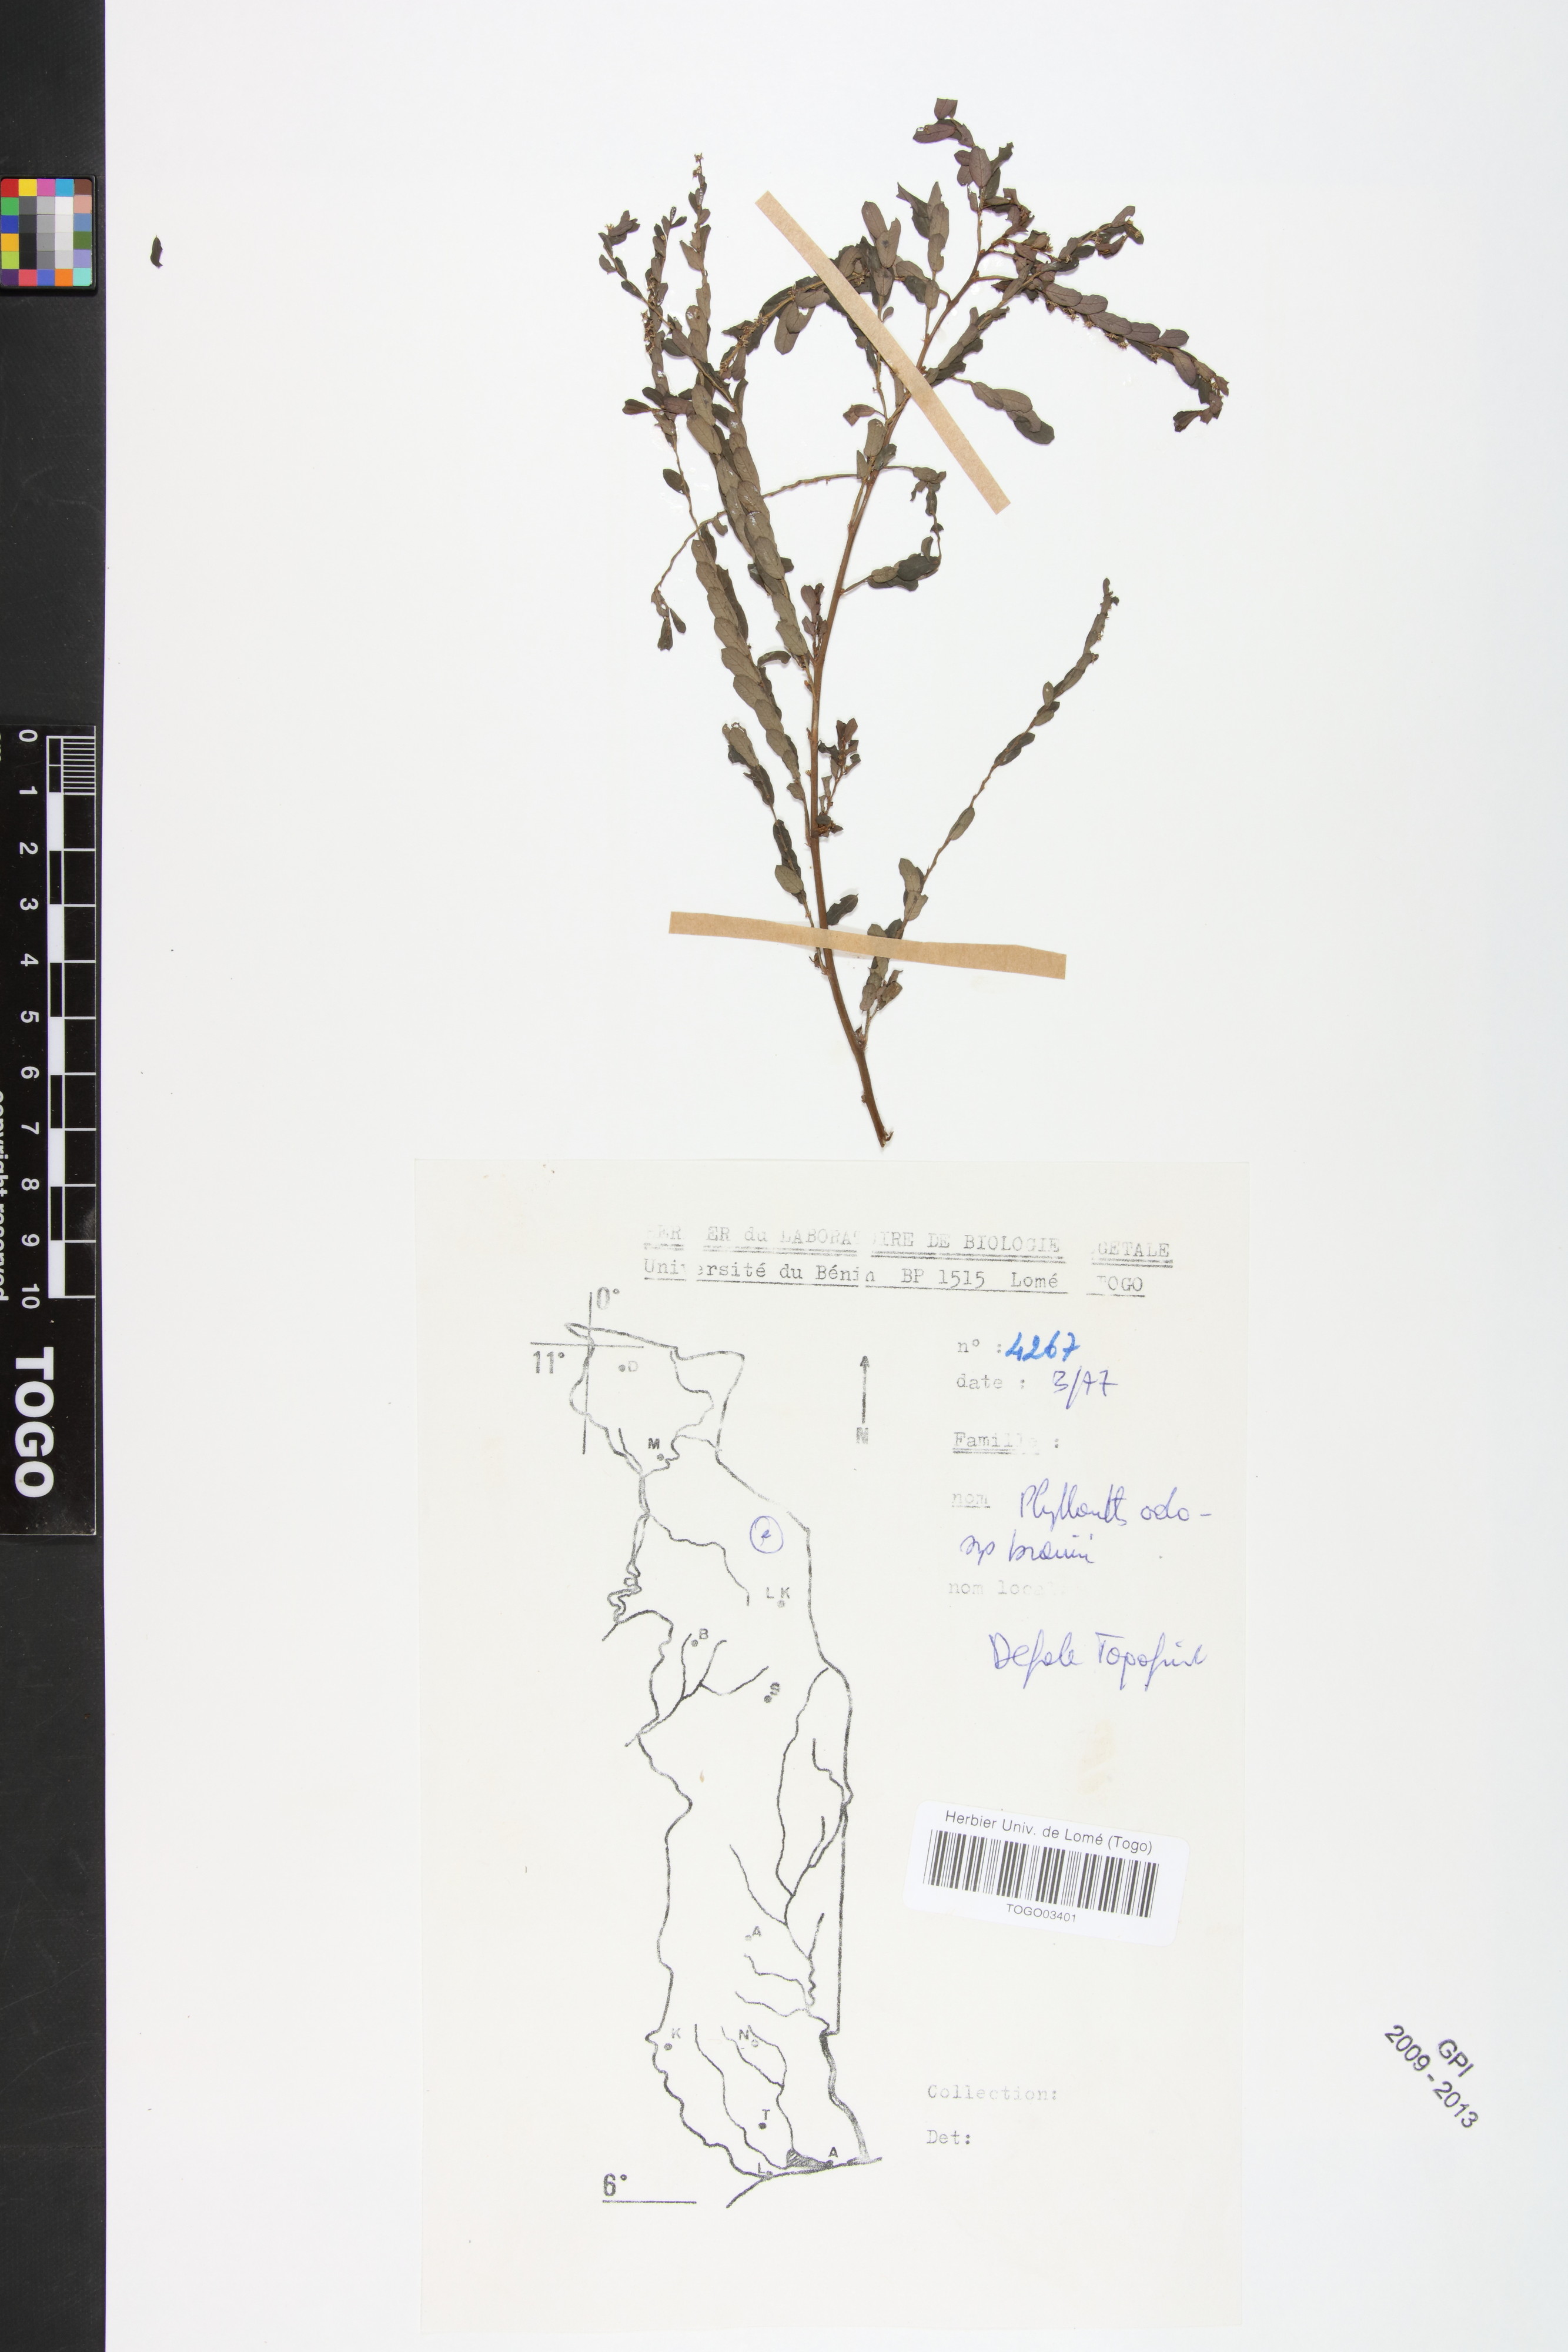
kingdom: Plantae
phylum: Tracheophyta
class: Magnoliopsida
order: Malpighiales
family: Phyllanthaceae
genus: Phyllanthus
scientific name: Phyllanthus odontadenius
